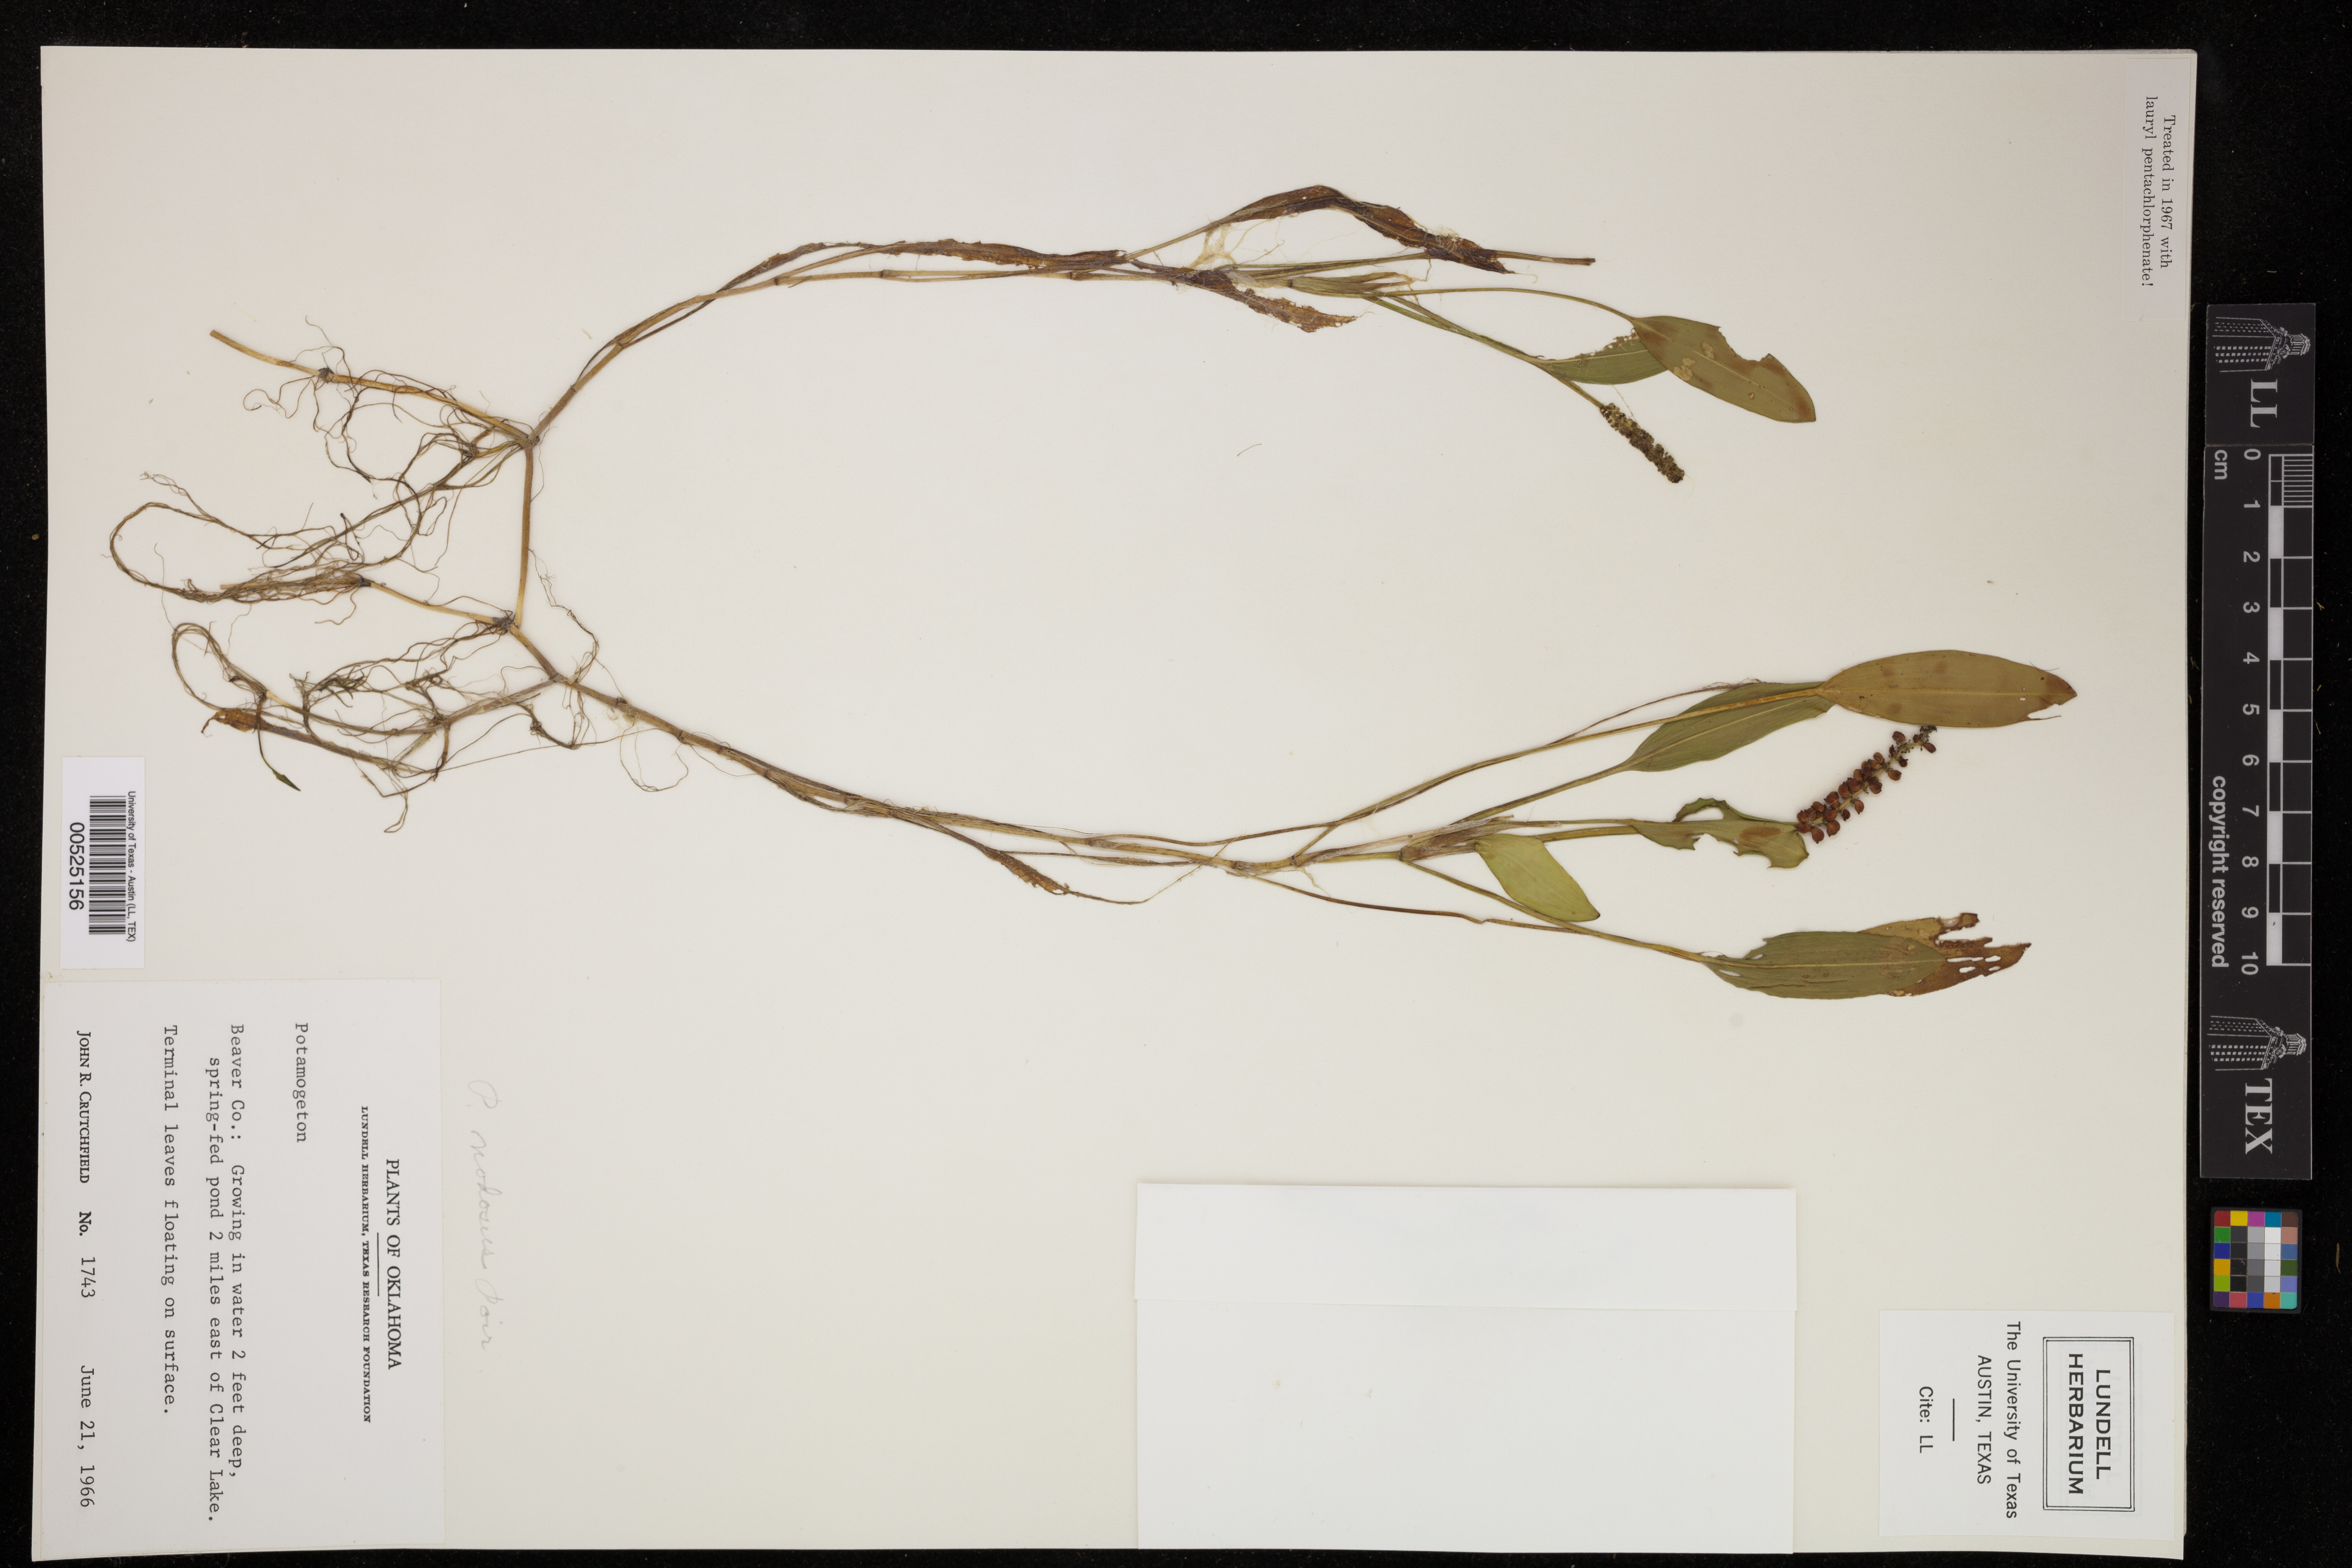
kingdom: Plantae
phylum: Tracheophyta
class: Liliopsida
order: Alismatales
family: Potamogetonaceae
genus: Potamogeton
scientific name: Potamogeton nodosus
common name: Loddon pondweed
